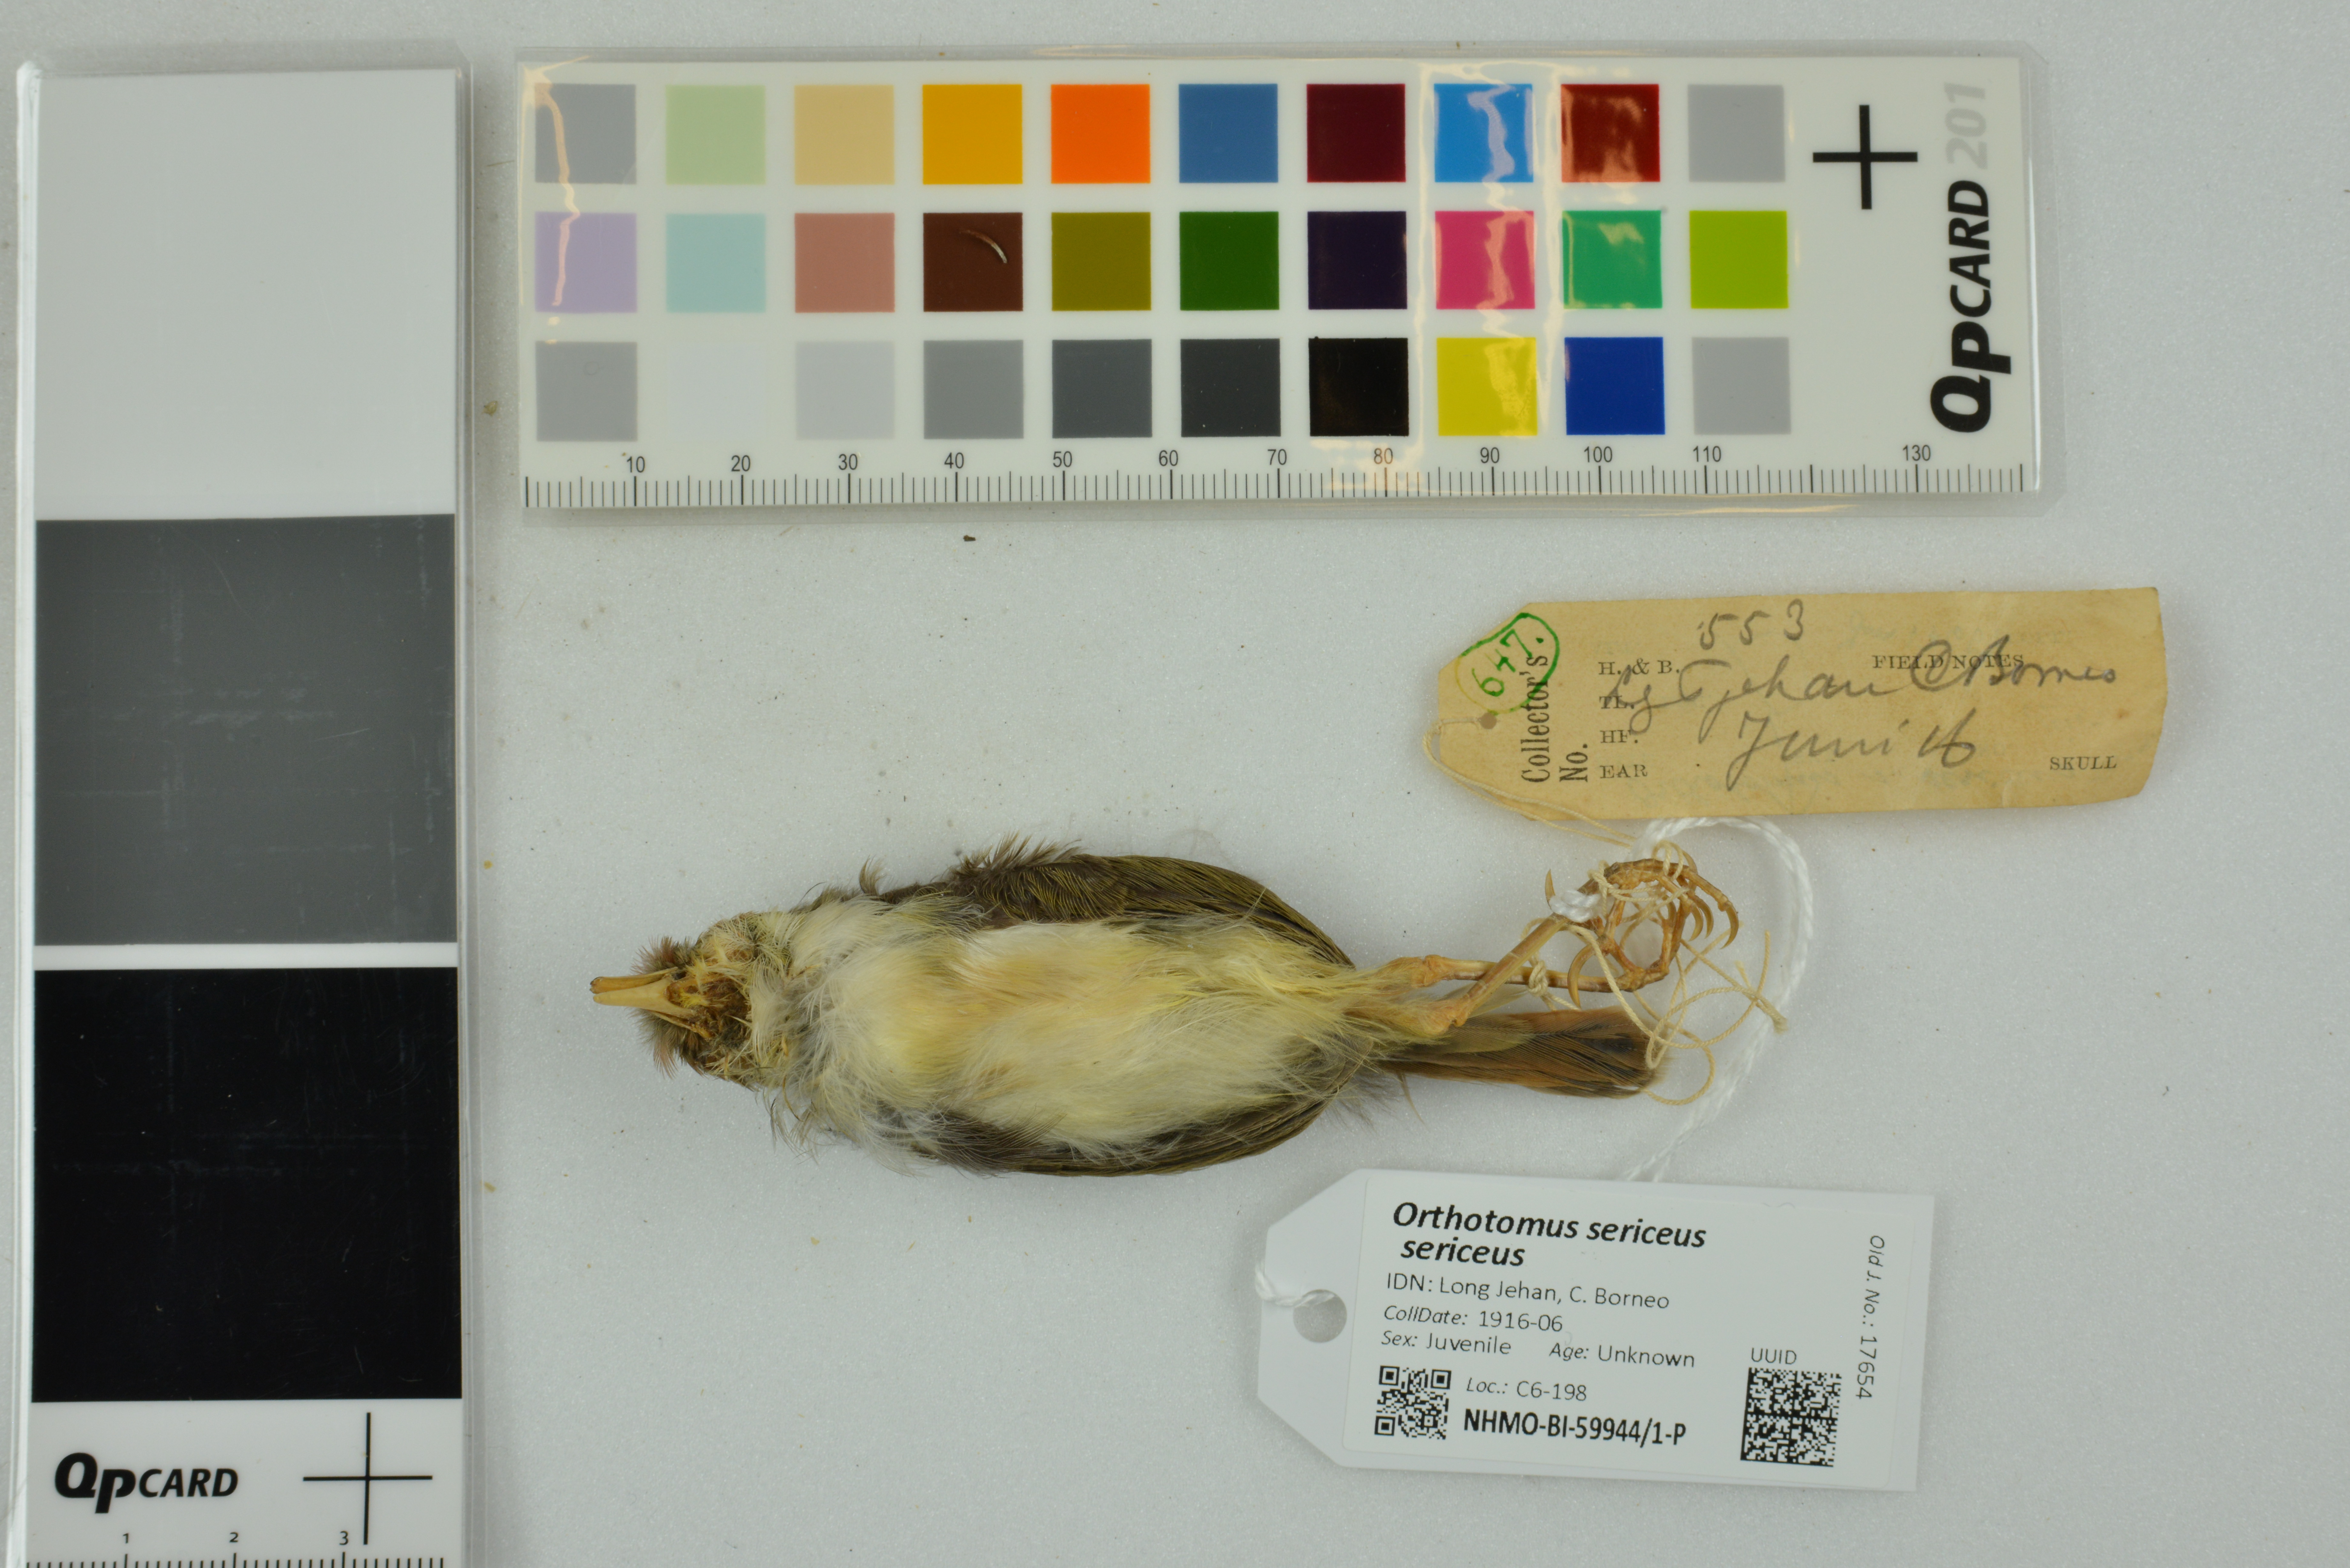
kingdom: Animalia
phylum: Chordata
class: Aves
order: Passeriformes
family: Cisticolidae
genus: Orthotomus
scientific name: Orthotomus sericeus
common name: Rufous-tailed tailorbird
